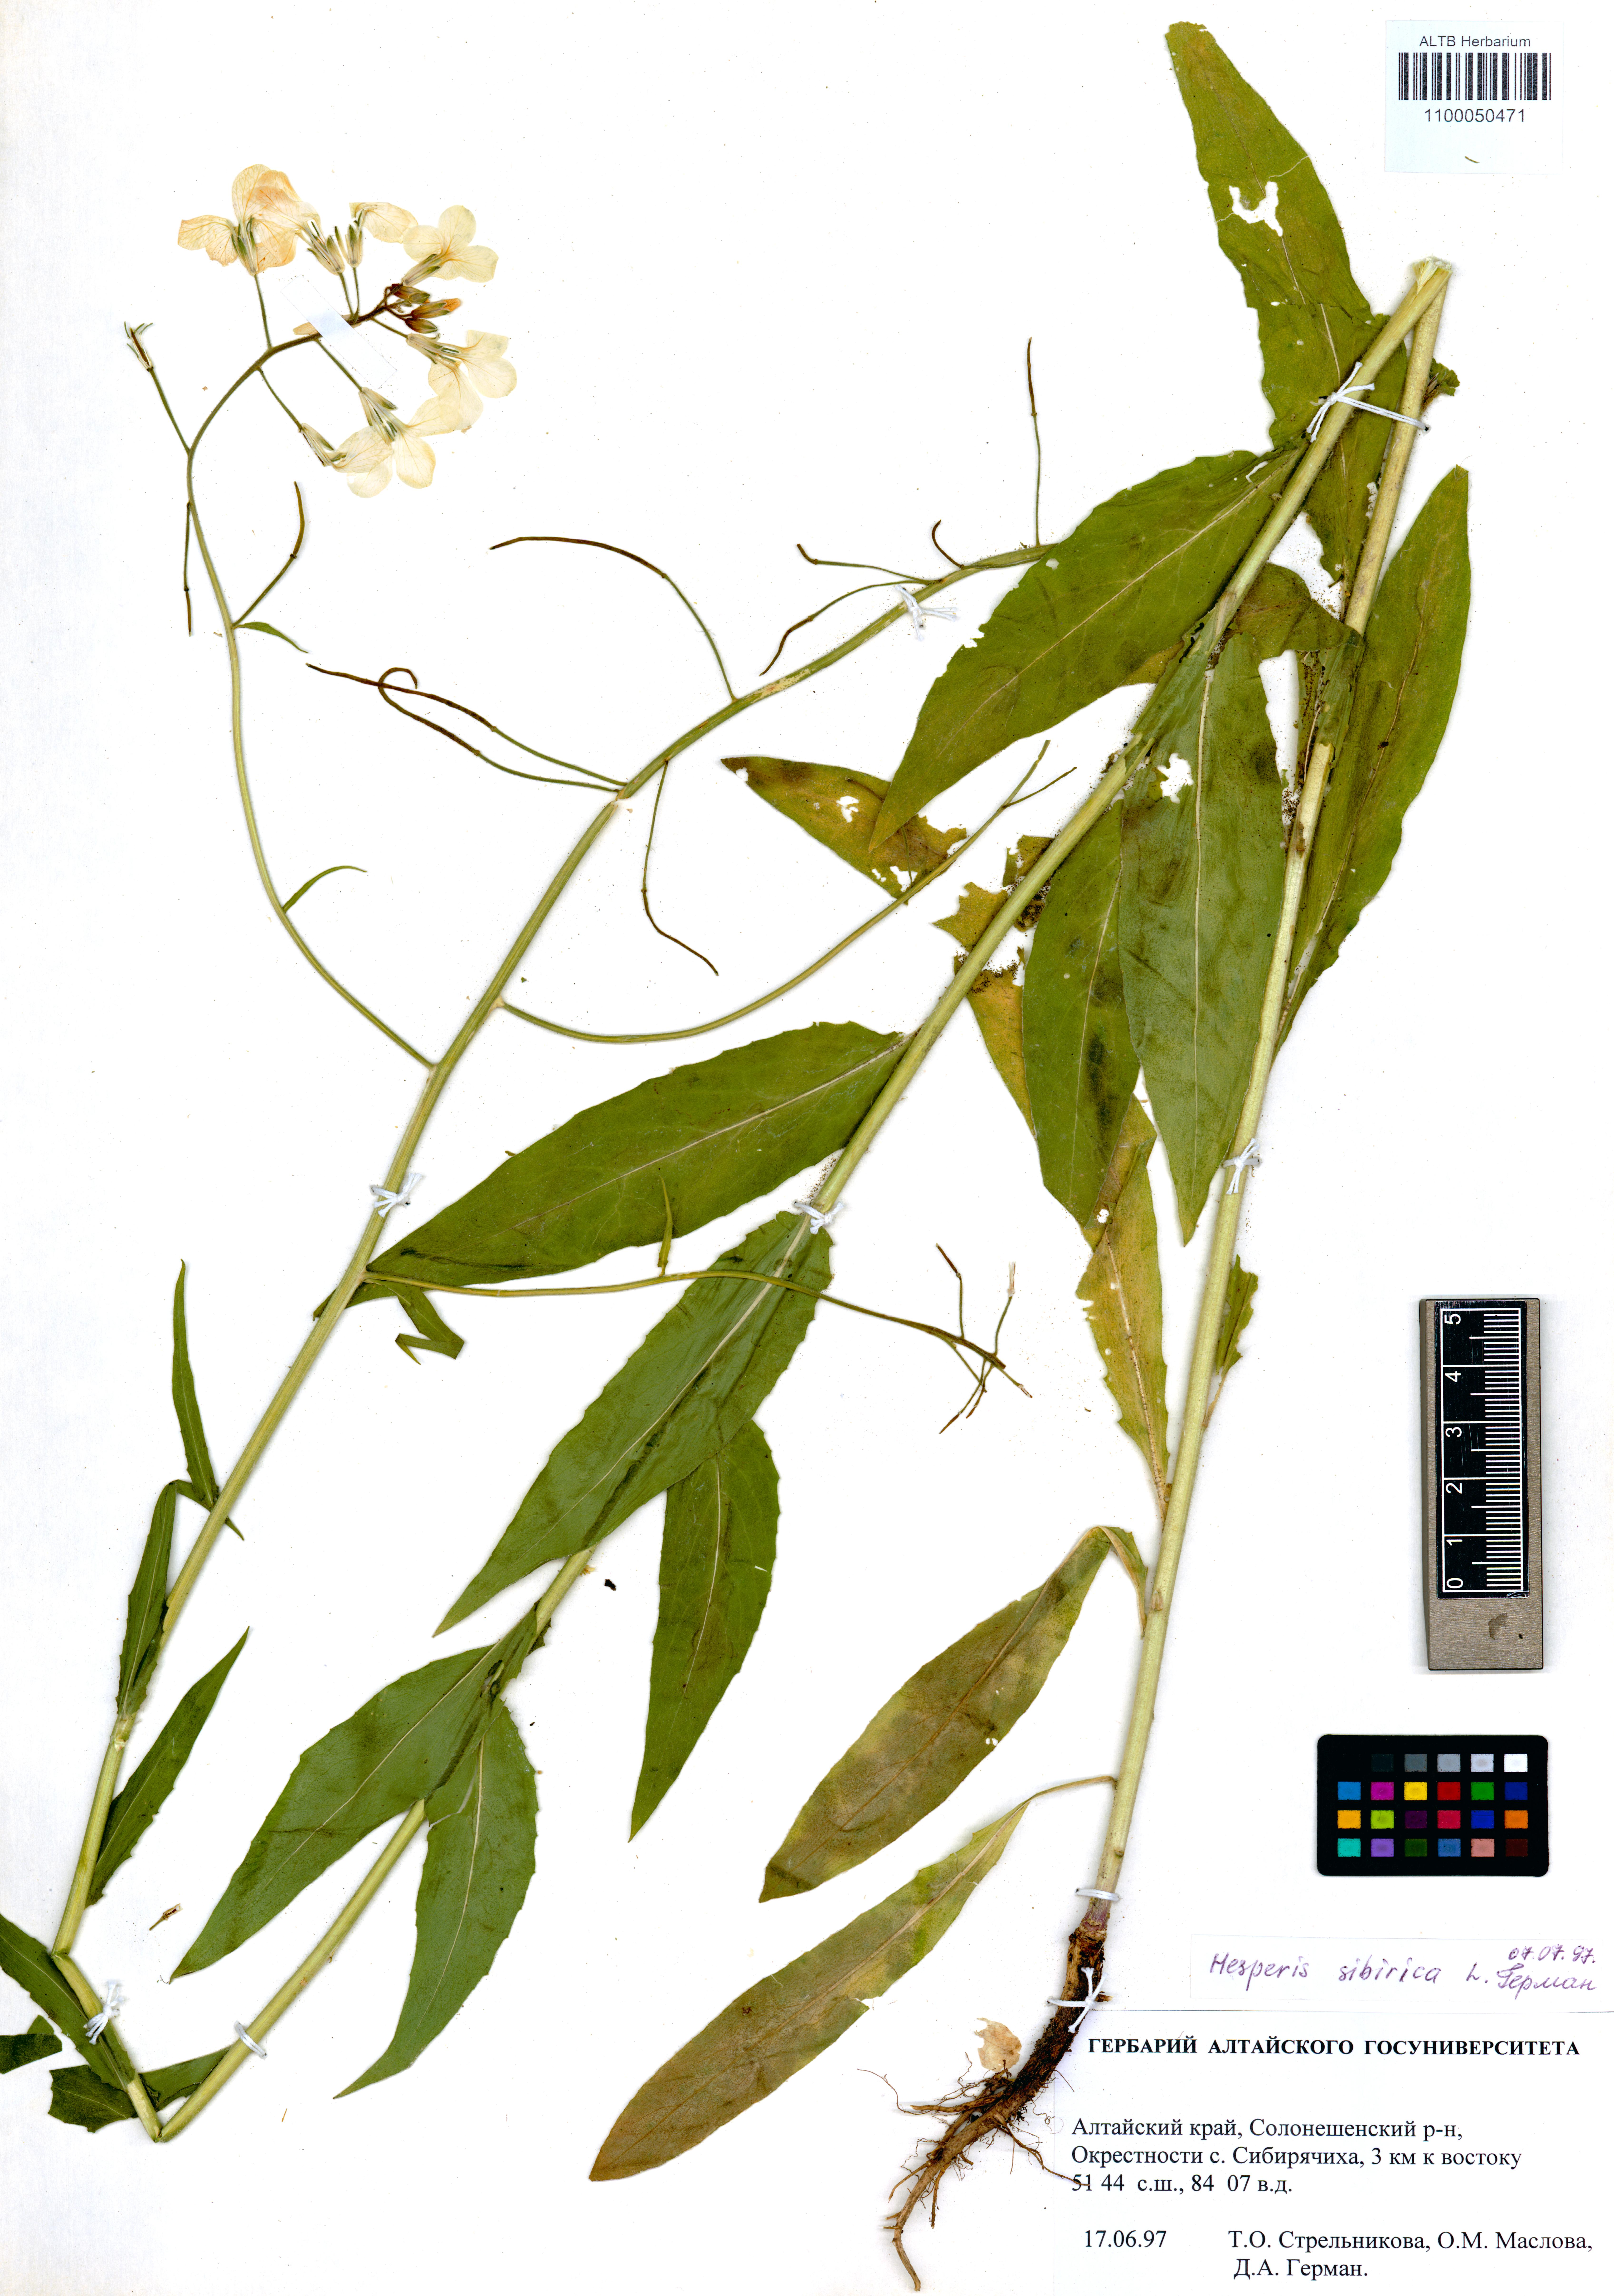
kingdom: Plantae
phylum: Tracheophyta
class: Magnoliopsida
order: Brassicales
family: Brassicaceae
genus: Hesperis
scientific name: Hesperis sibirica
